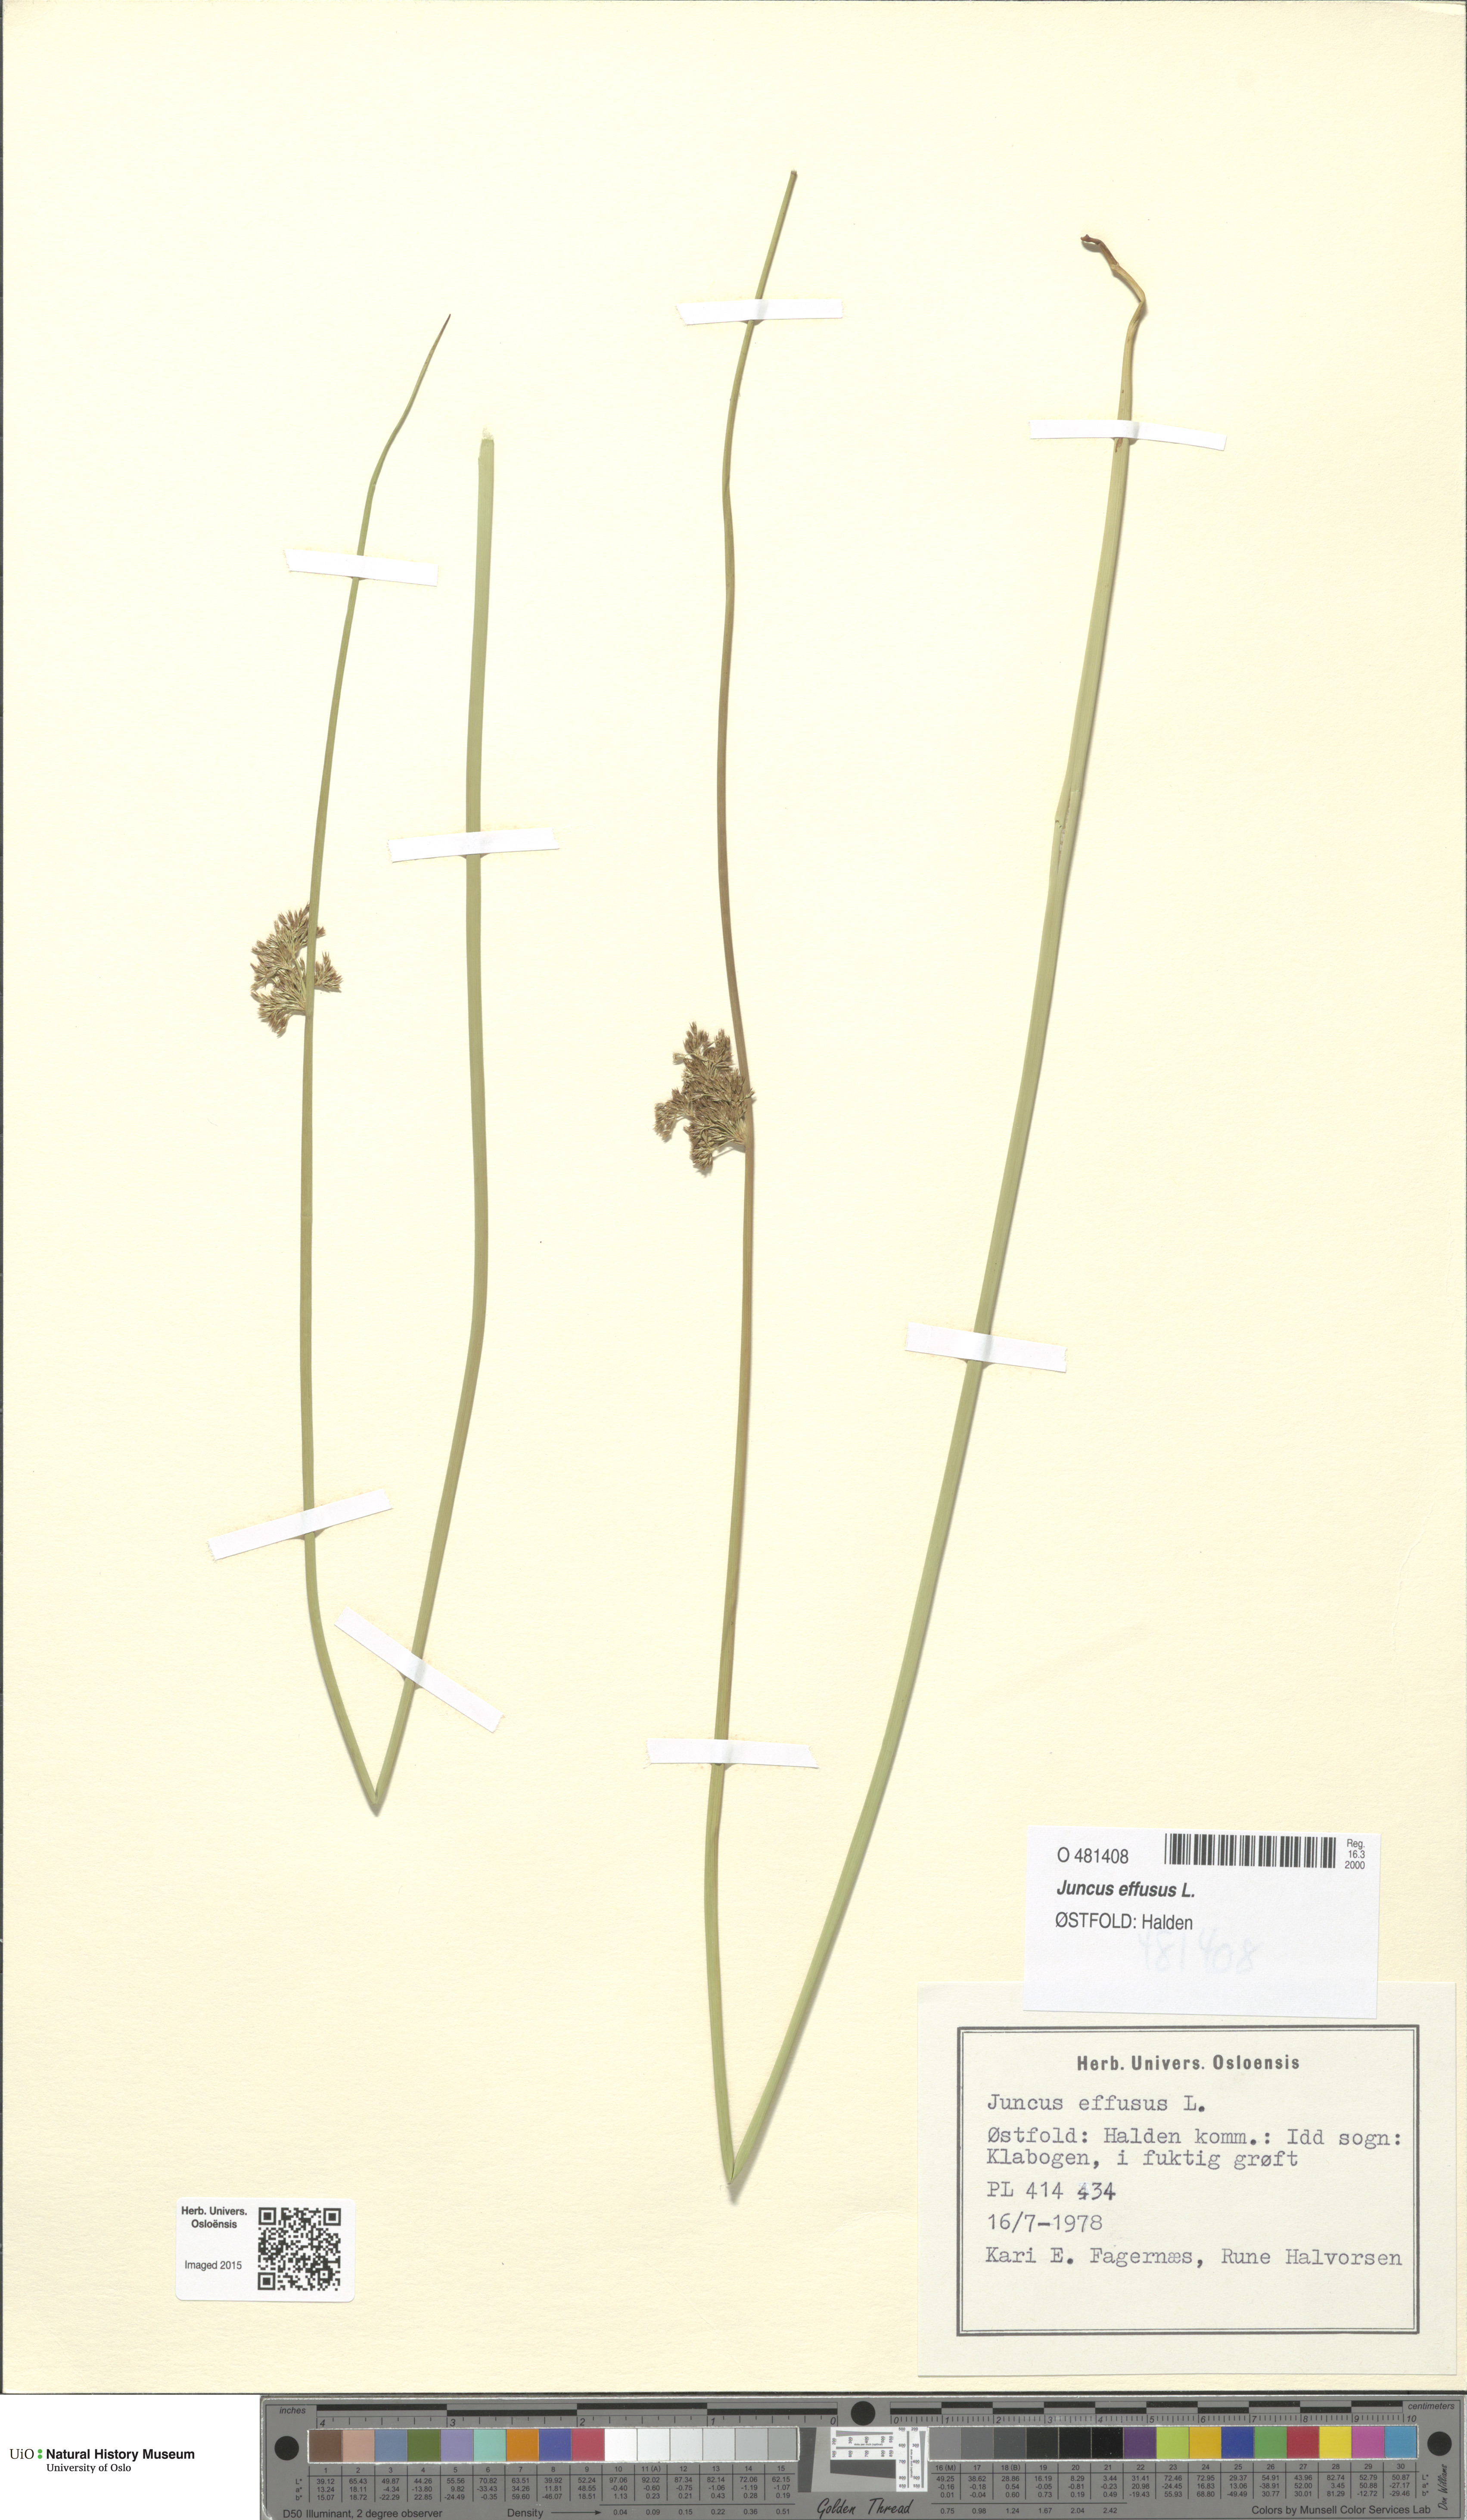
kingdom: Plantae
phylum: Tracheophyta
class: Liliopsida
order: Poales
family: Juncaceae
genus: Juncus
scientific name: Juncus effusus
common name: Soft rush
